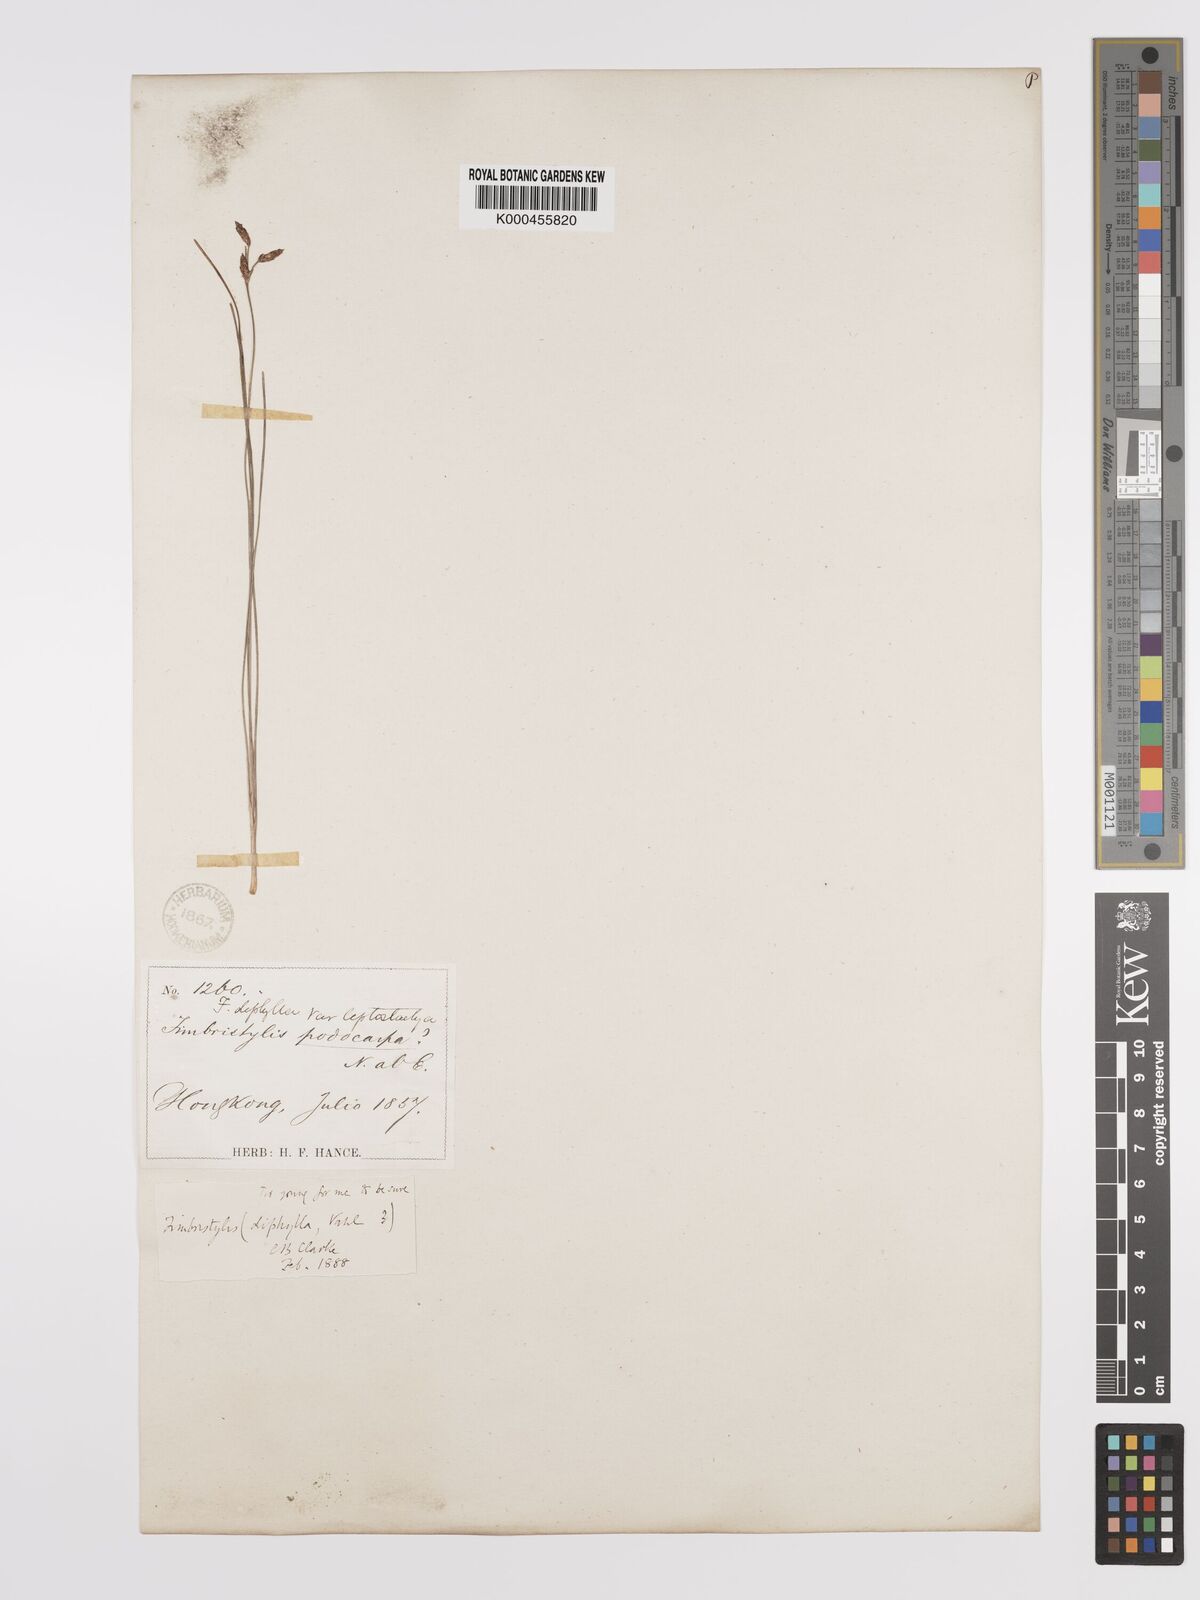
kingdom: Plantae
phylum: Tracheophyta
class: Liliopsida
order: Poales
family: Cyperaceae
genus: Fimbristylis
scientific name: Fimbristylis dichotoma
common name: Forked fimbry
